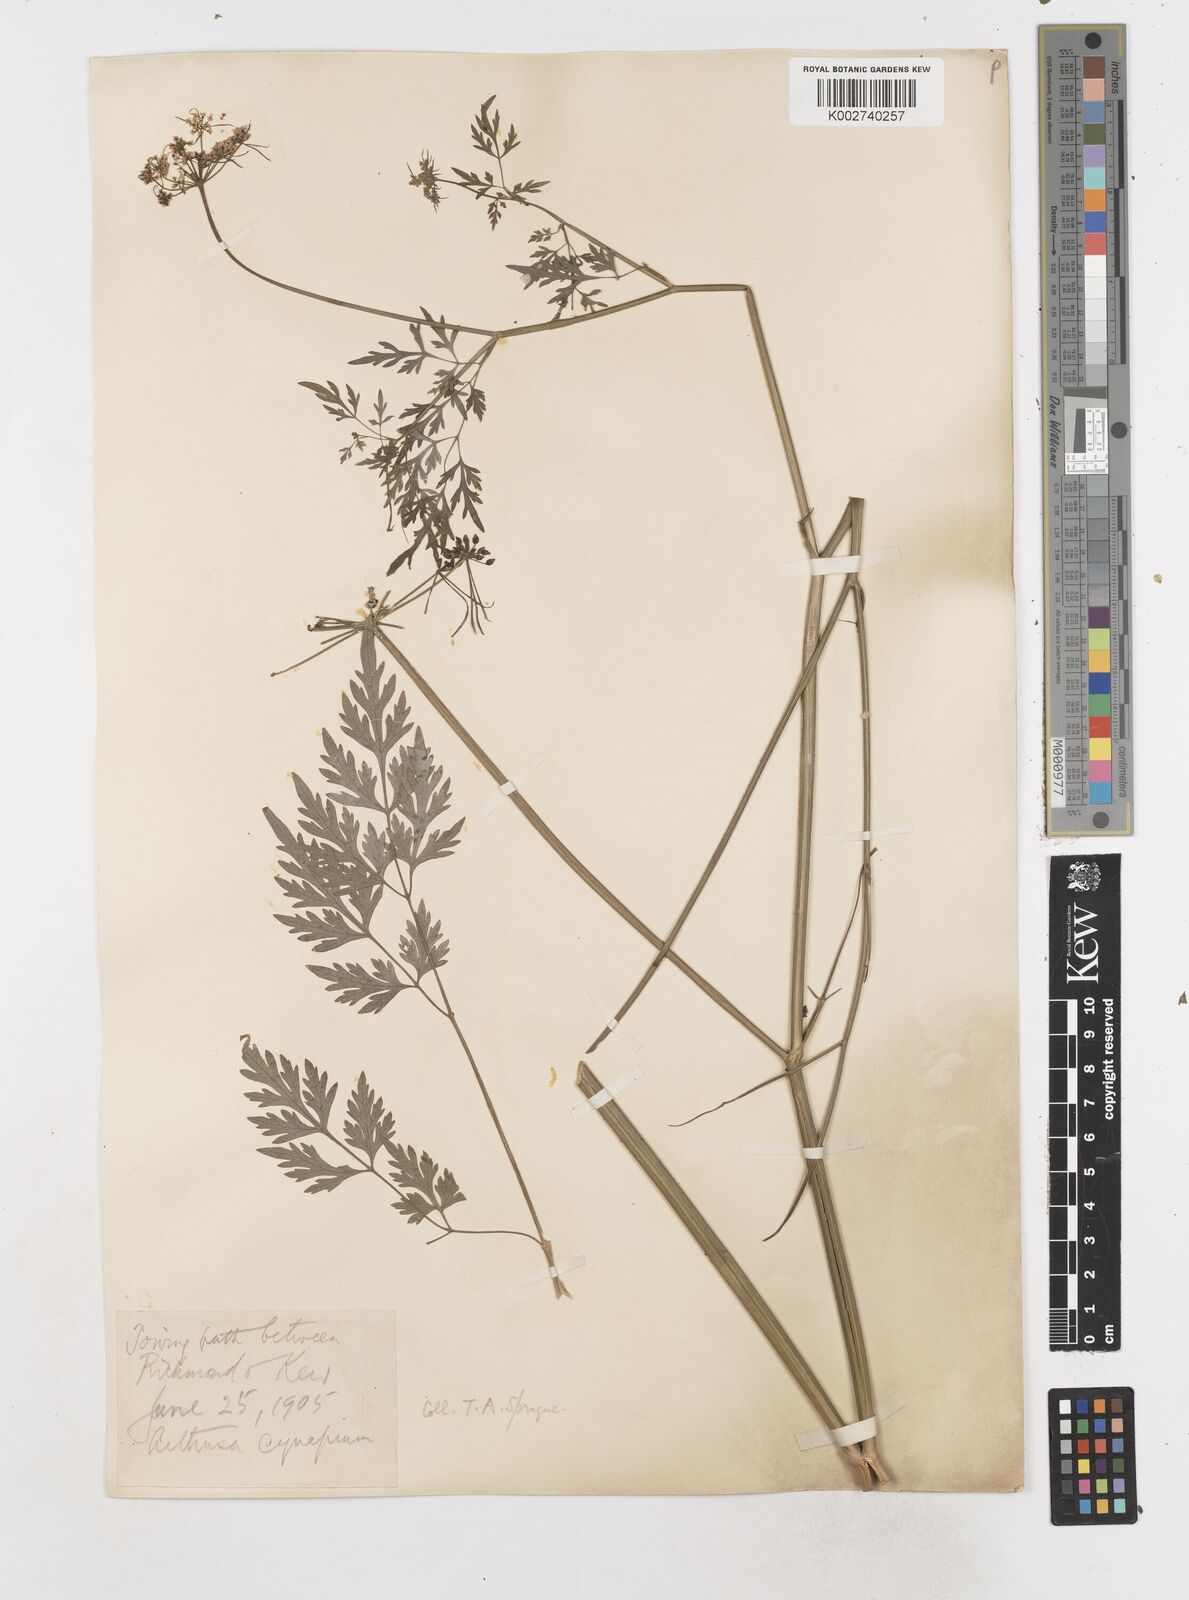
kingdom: Plantae
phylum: Tracheophyta
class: Magnoliopsida
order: Apiales
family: Apiaceae
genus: Aethusa
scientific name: Aethusa cynapium
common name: Fool's parsley
